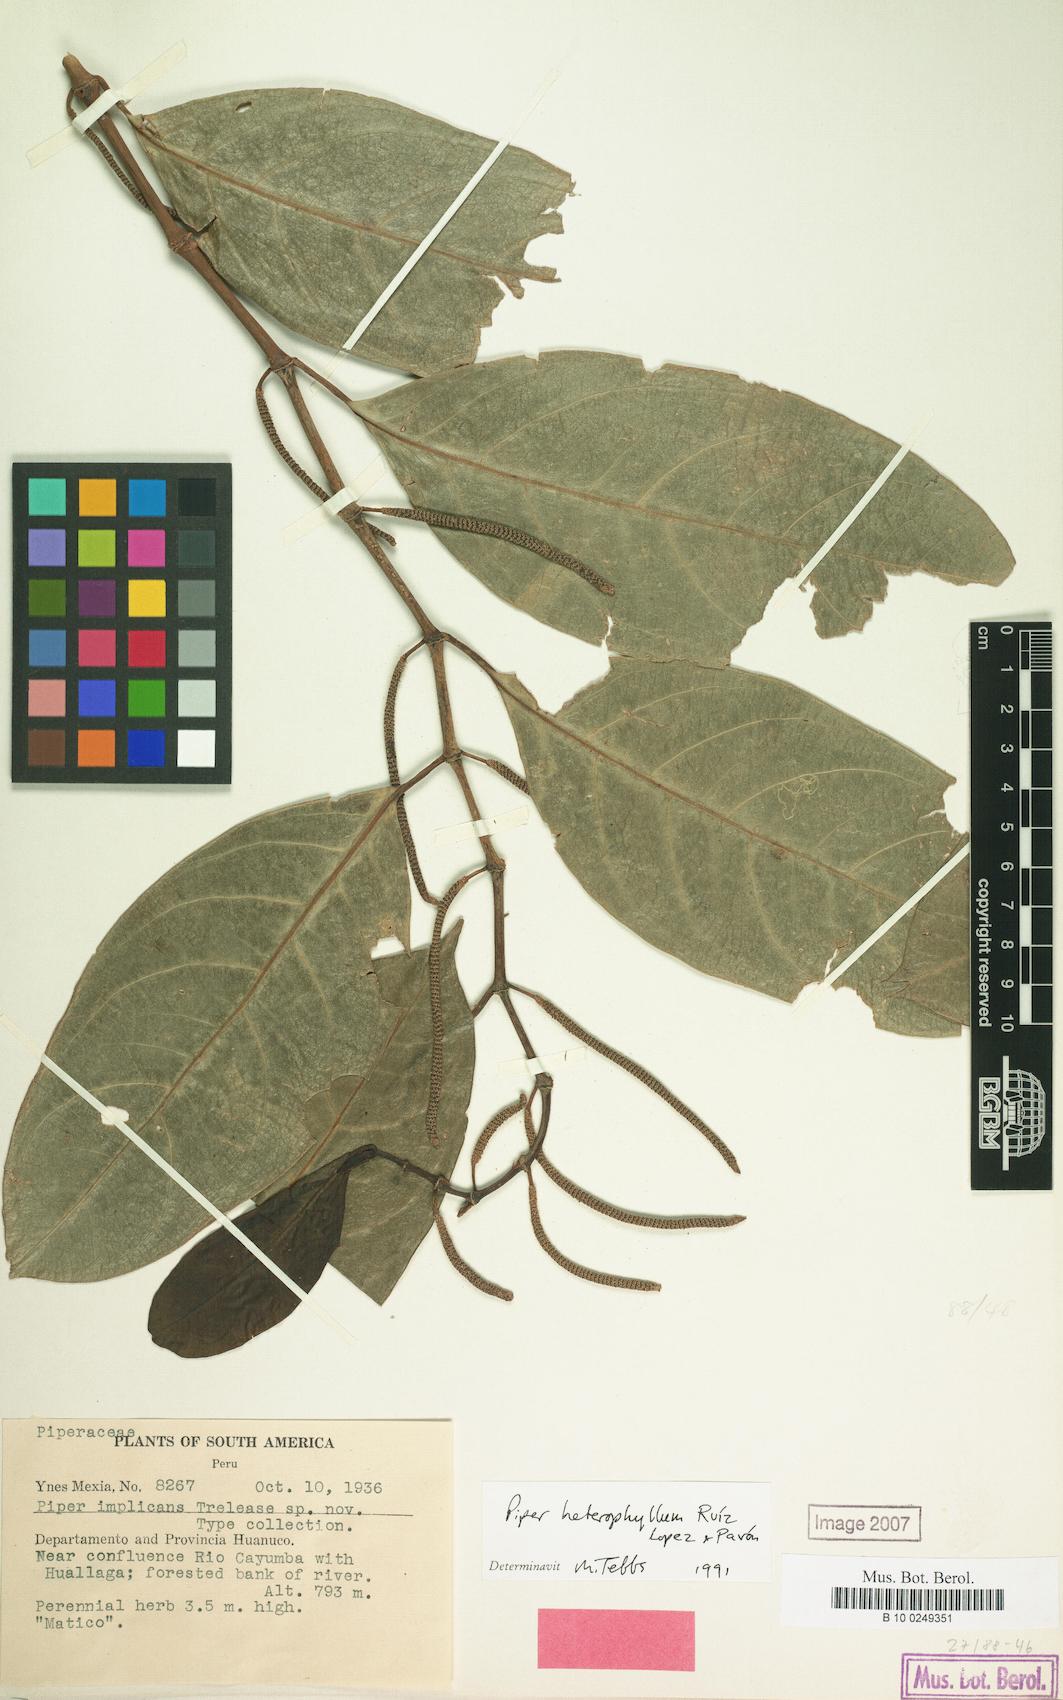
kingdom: Plantae
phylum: Tracheophyta
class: Magnoliopsida
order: Piperales
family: Piperaceae
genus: Piper
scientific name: Piper heterophyllum
